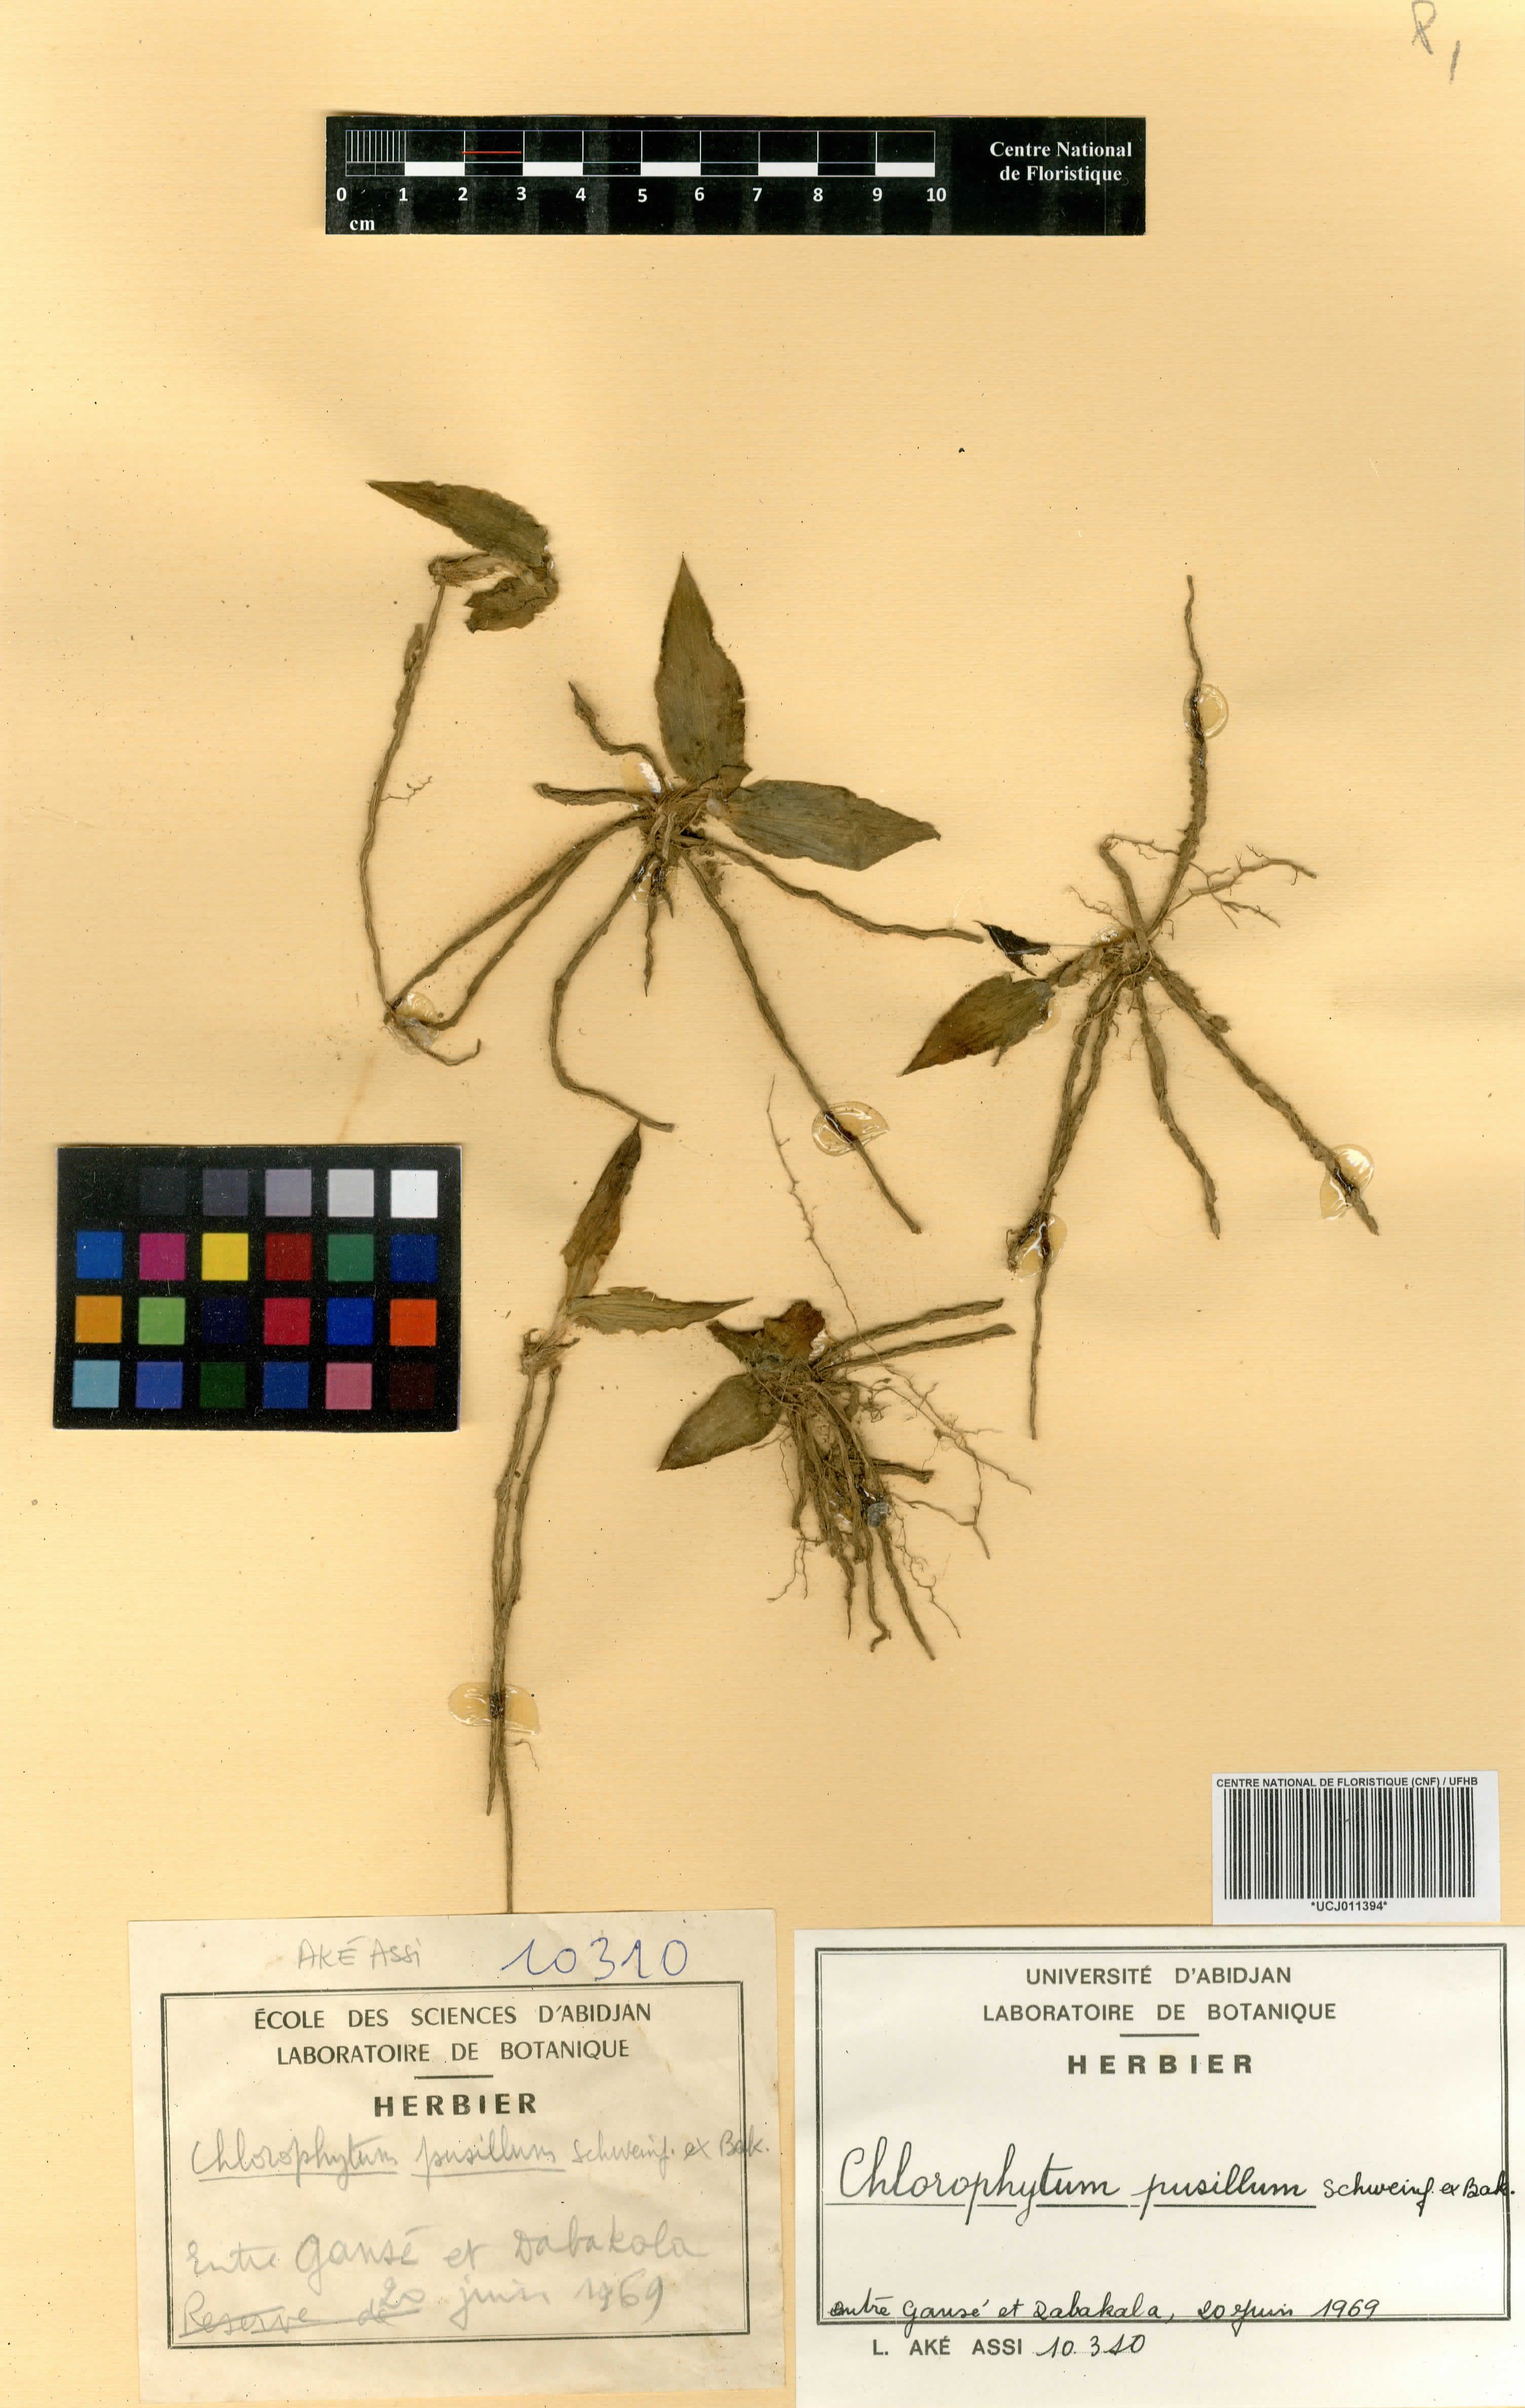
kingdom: Plantae
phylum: Tracheophyta
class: Liliopsida
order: Asparagales
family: Asparagaceae
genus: Chlorophytum
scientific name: Chlorophytum pusillum
